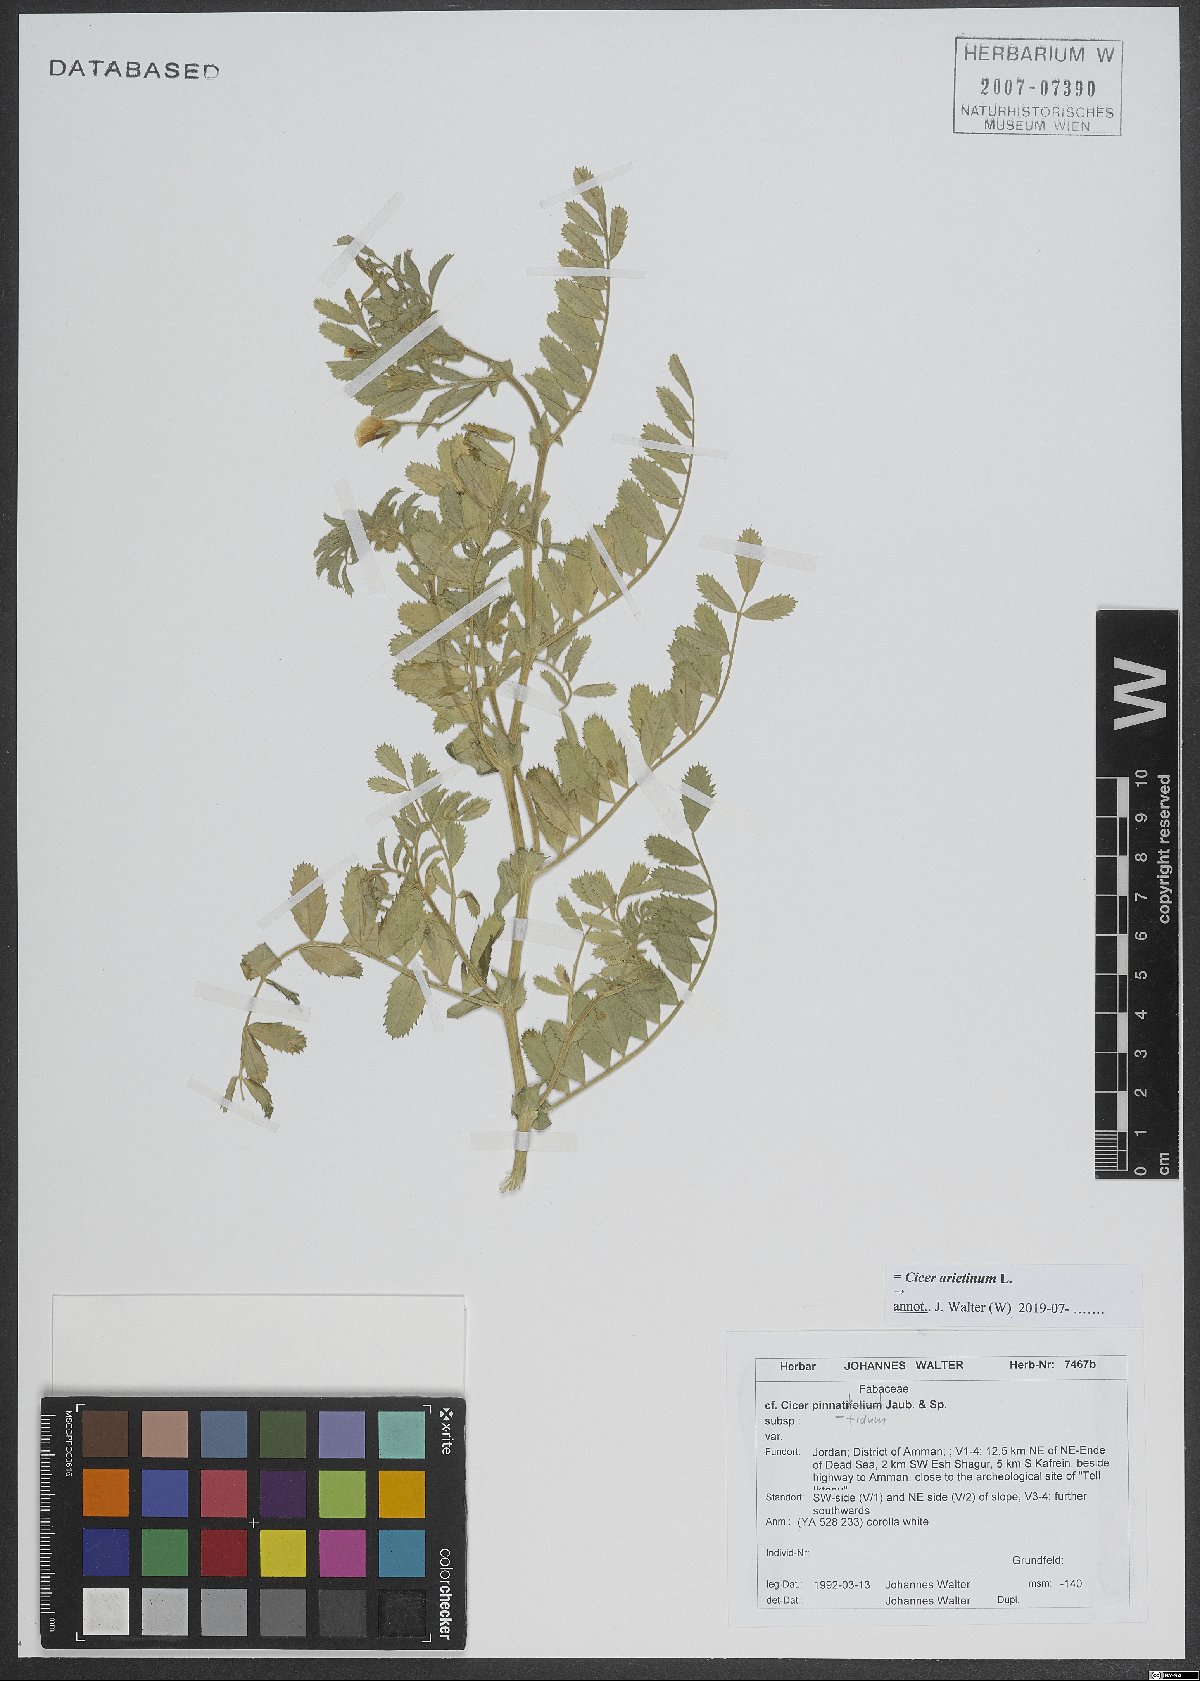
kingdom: Plantae
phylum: Tracheophyta
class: Magnoliopsida
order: Fabales
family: Fabaceae
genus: Cicer
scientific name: Cicer arietinum
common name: Chick pea
